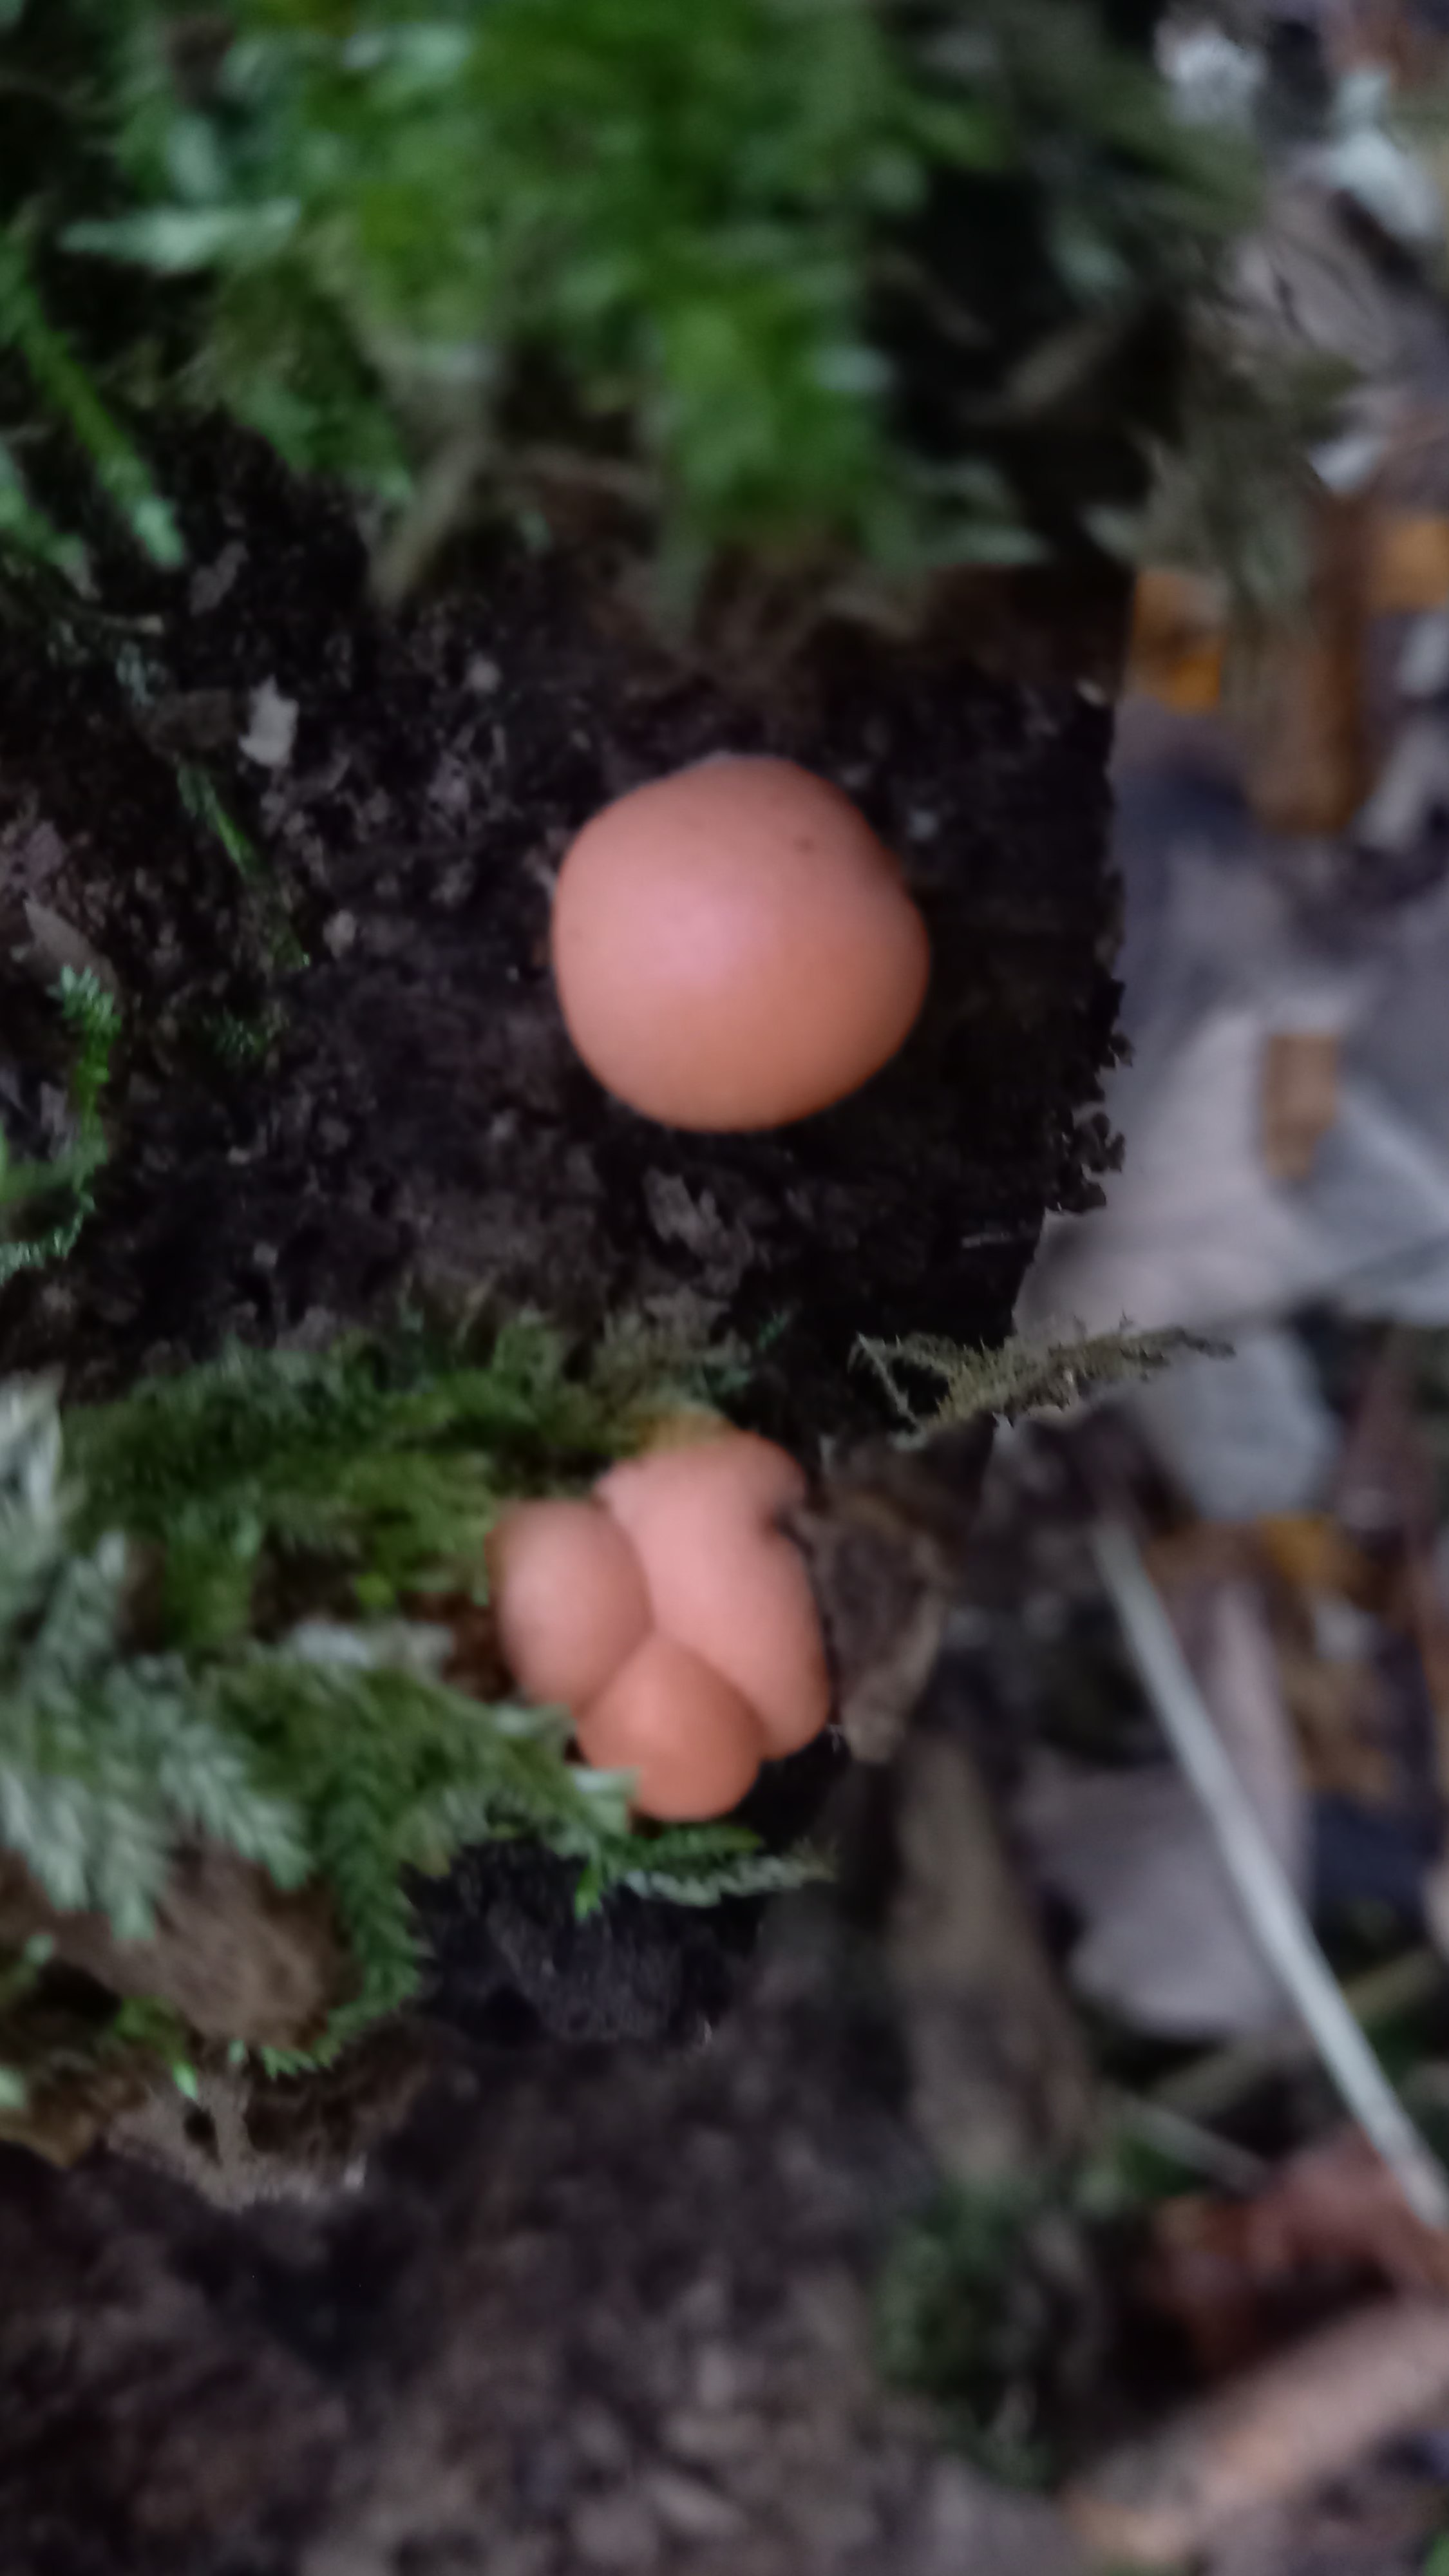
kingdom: Protozoa
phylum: Mycetozoa
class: Myxomycetes
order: Cribrariales
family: Tubiferaceae
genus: Lycogala
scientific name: Lycogala epidendrum
